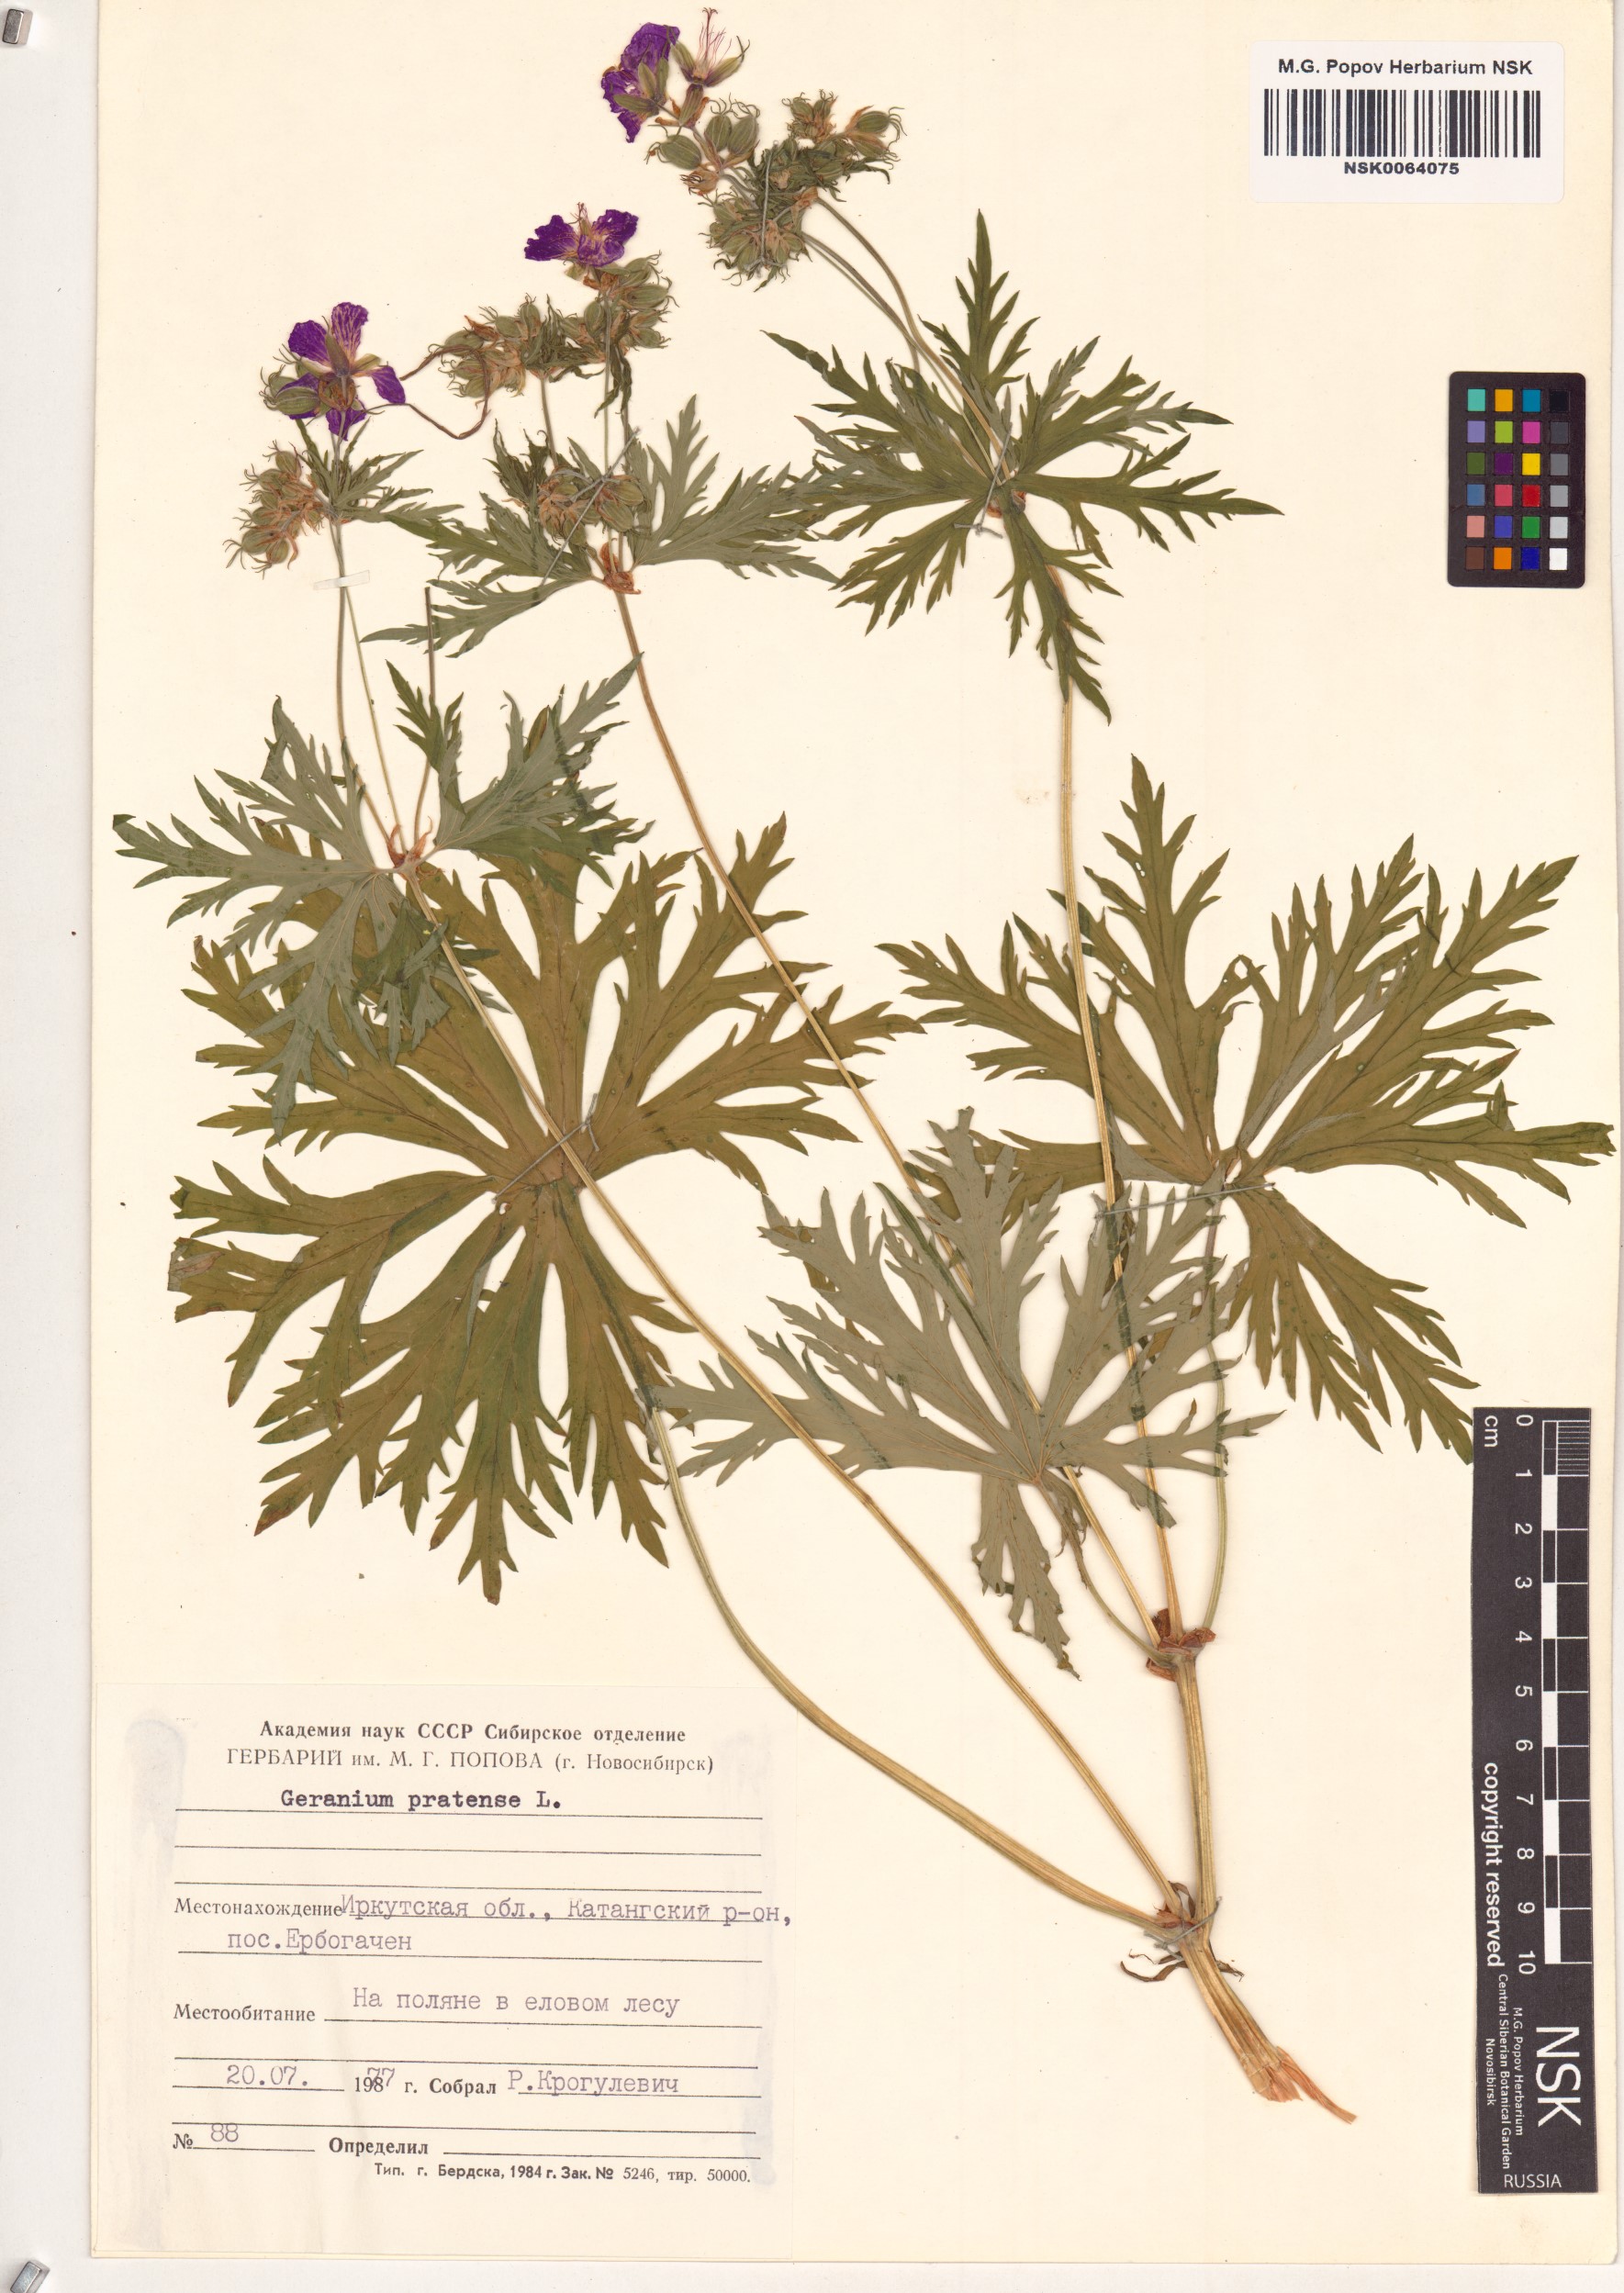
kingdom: Plantae
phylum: Tracheophyta
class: Magnoliopsida
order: Geraniales
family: Geraniaceae
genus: Geranium
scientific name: Geranium pratense
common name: Meadow crane's-bill
